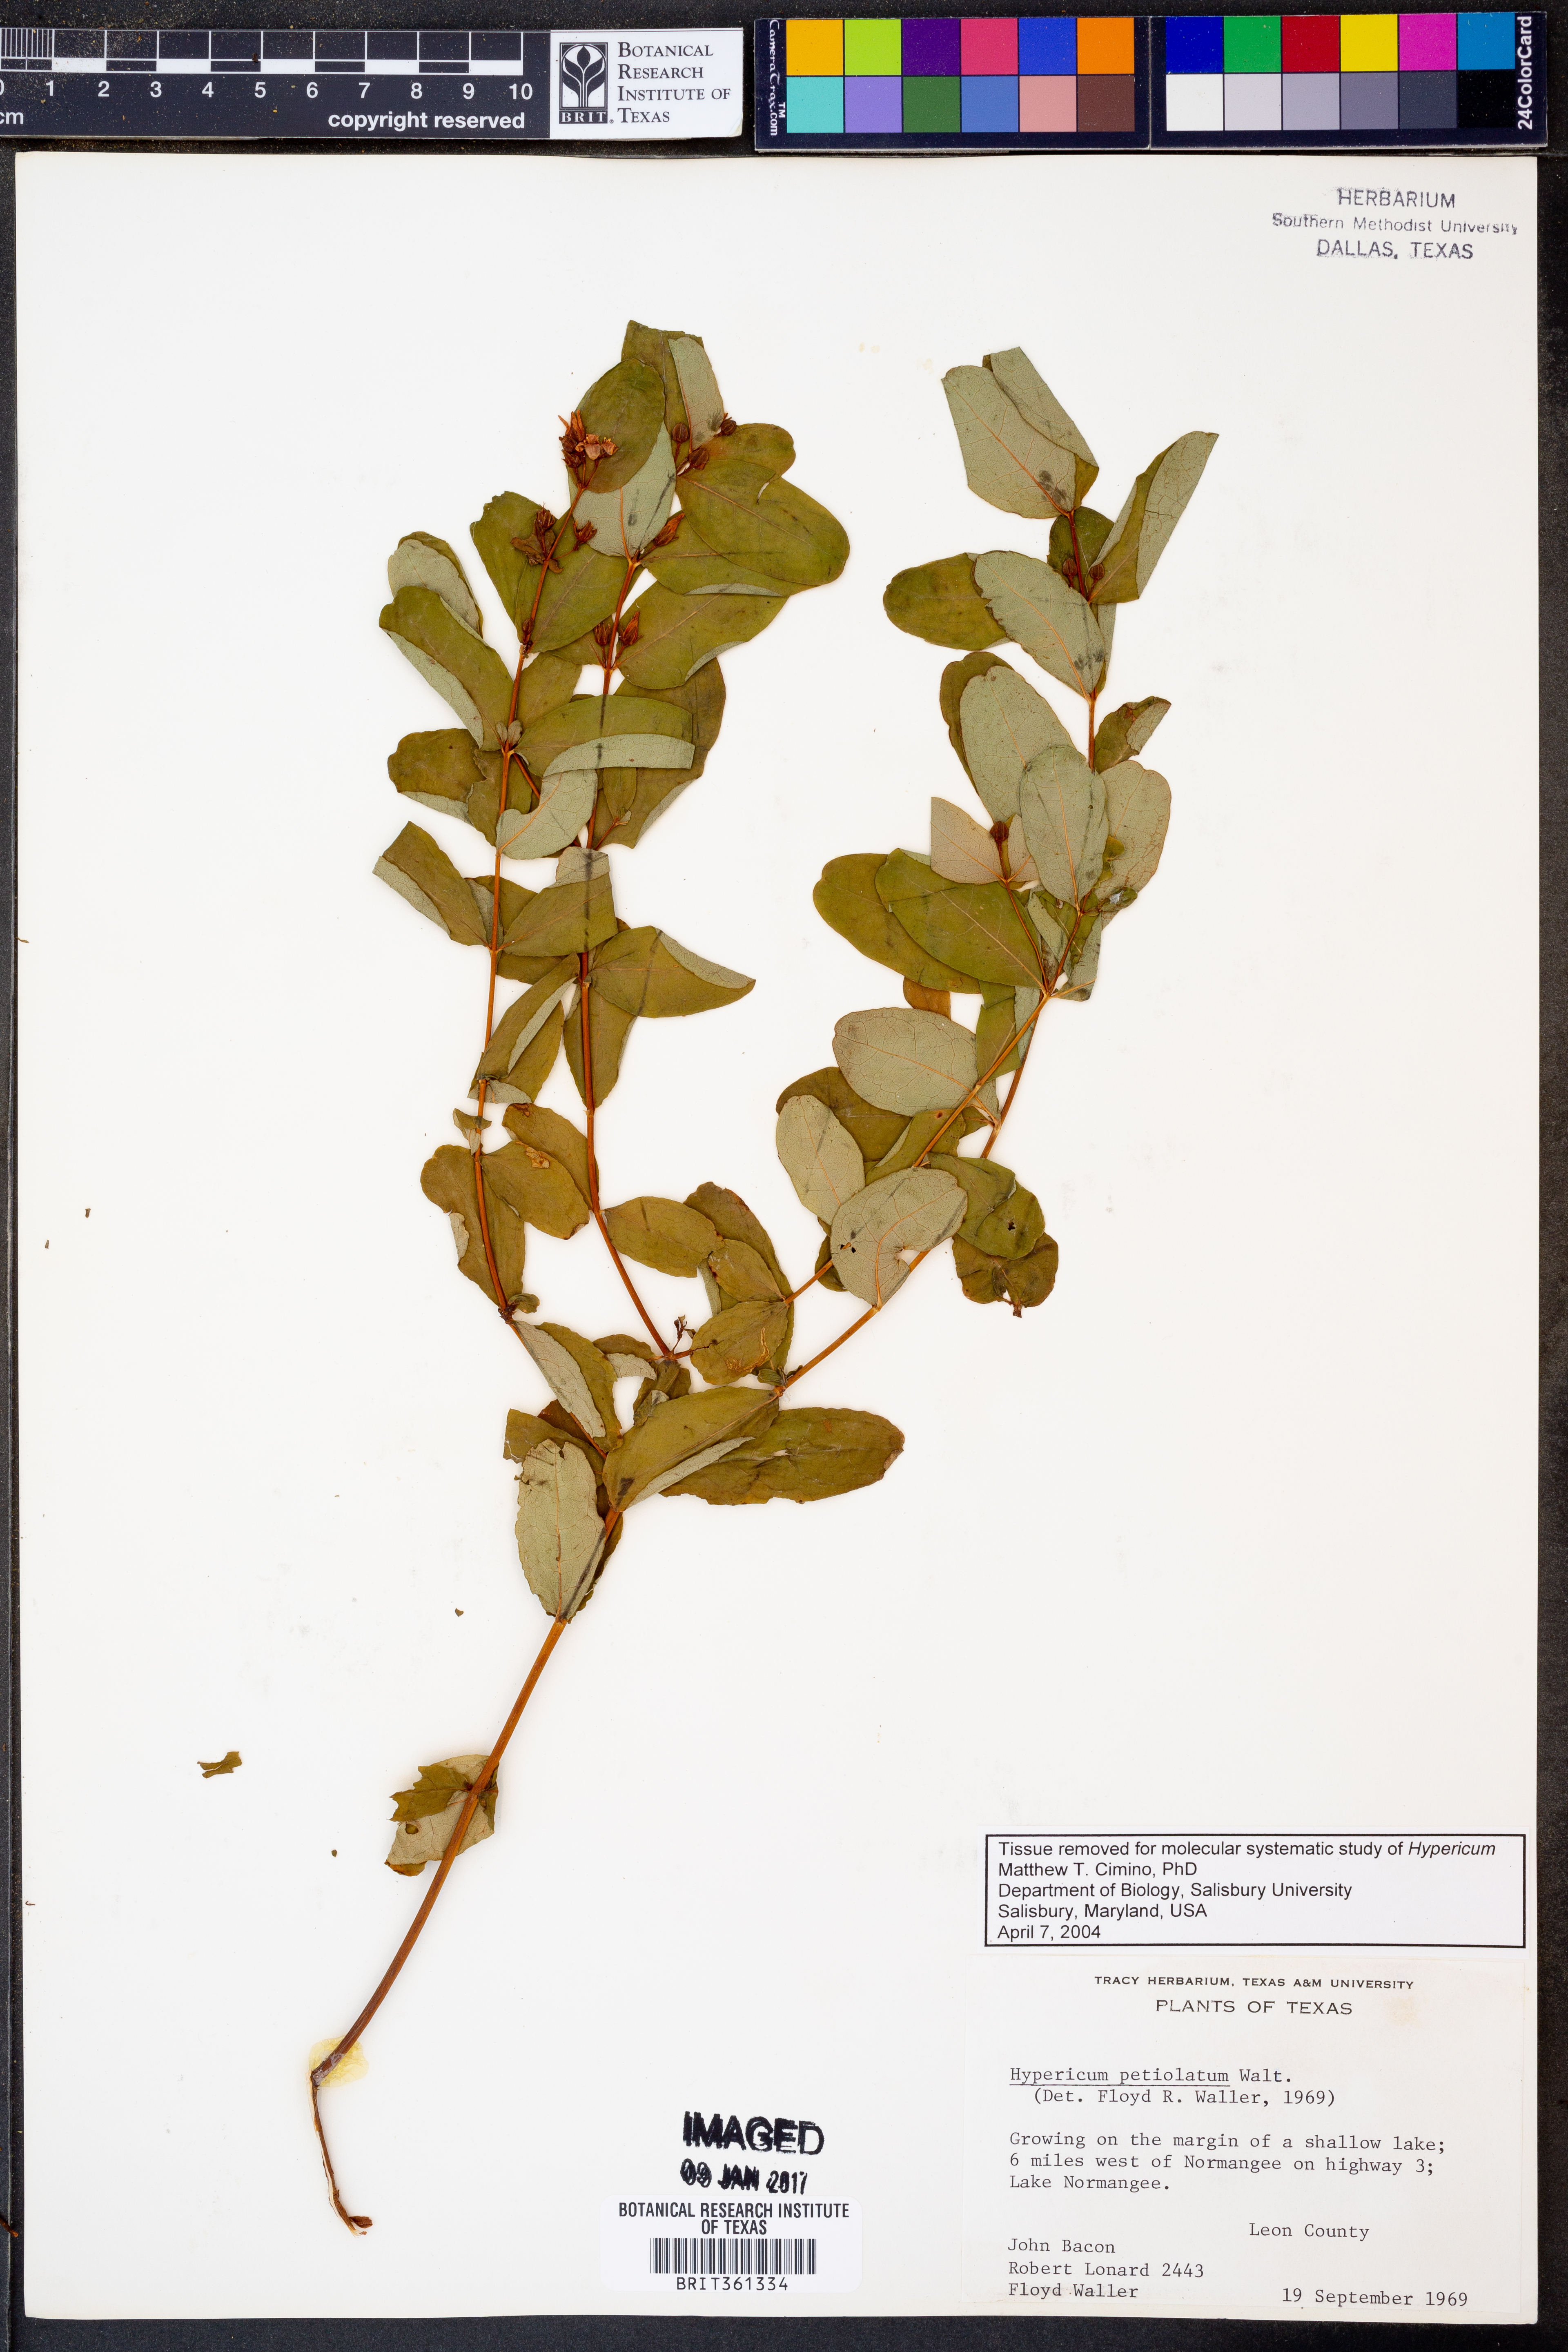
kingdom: Plantae
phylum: Tracheophyta
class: Magnoliopsida
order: Malpighiales
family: Hypericaceae
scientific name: Hypericaceae
